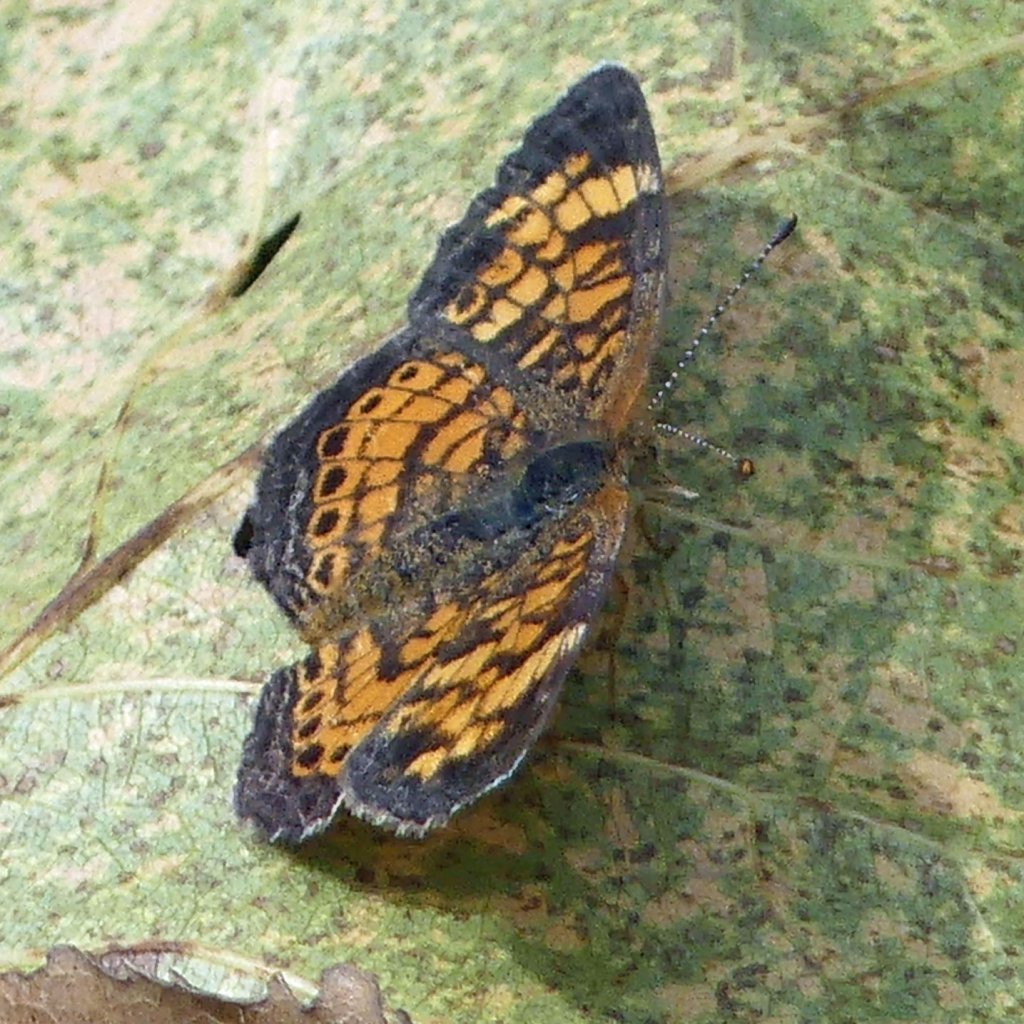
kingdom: Animalia
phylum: Arthropoda
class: Insecta
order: Lepidoptera
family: Nymphalidae
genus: Phyciodes
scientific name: Phyciodes tharos
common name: Pearl Crescent
